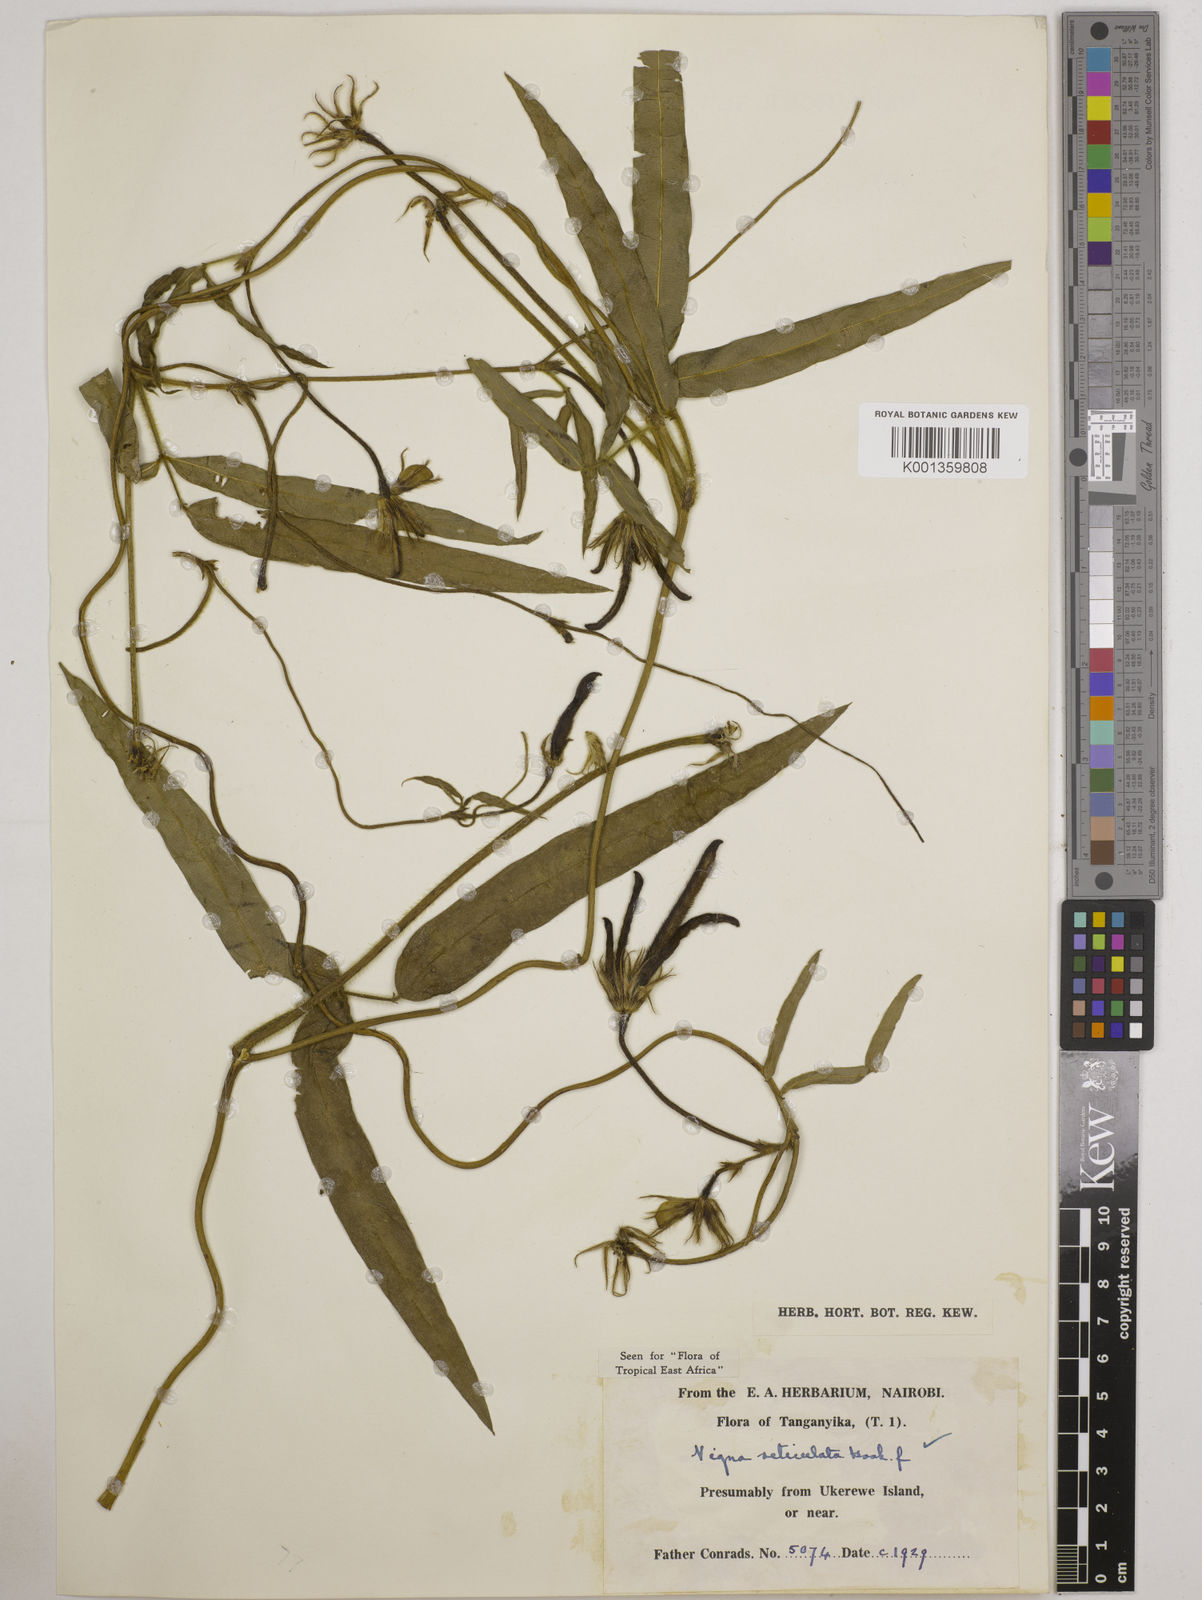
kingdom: Plantae
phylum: Tracheophyta
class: Magnoliopsida
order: Fabales
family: Fabaceae
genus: Vigna
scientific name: Vigna reticulata
